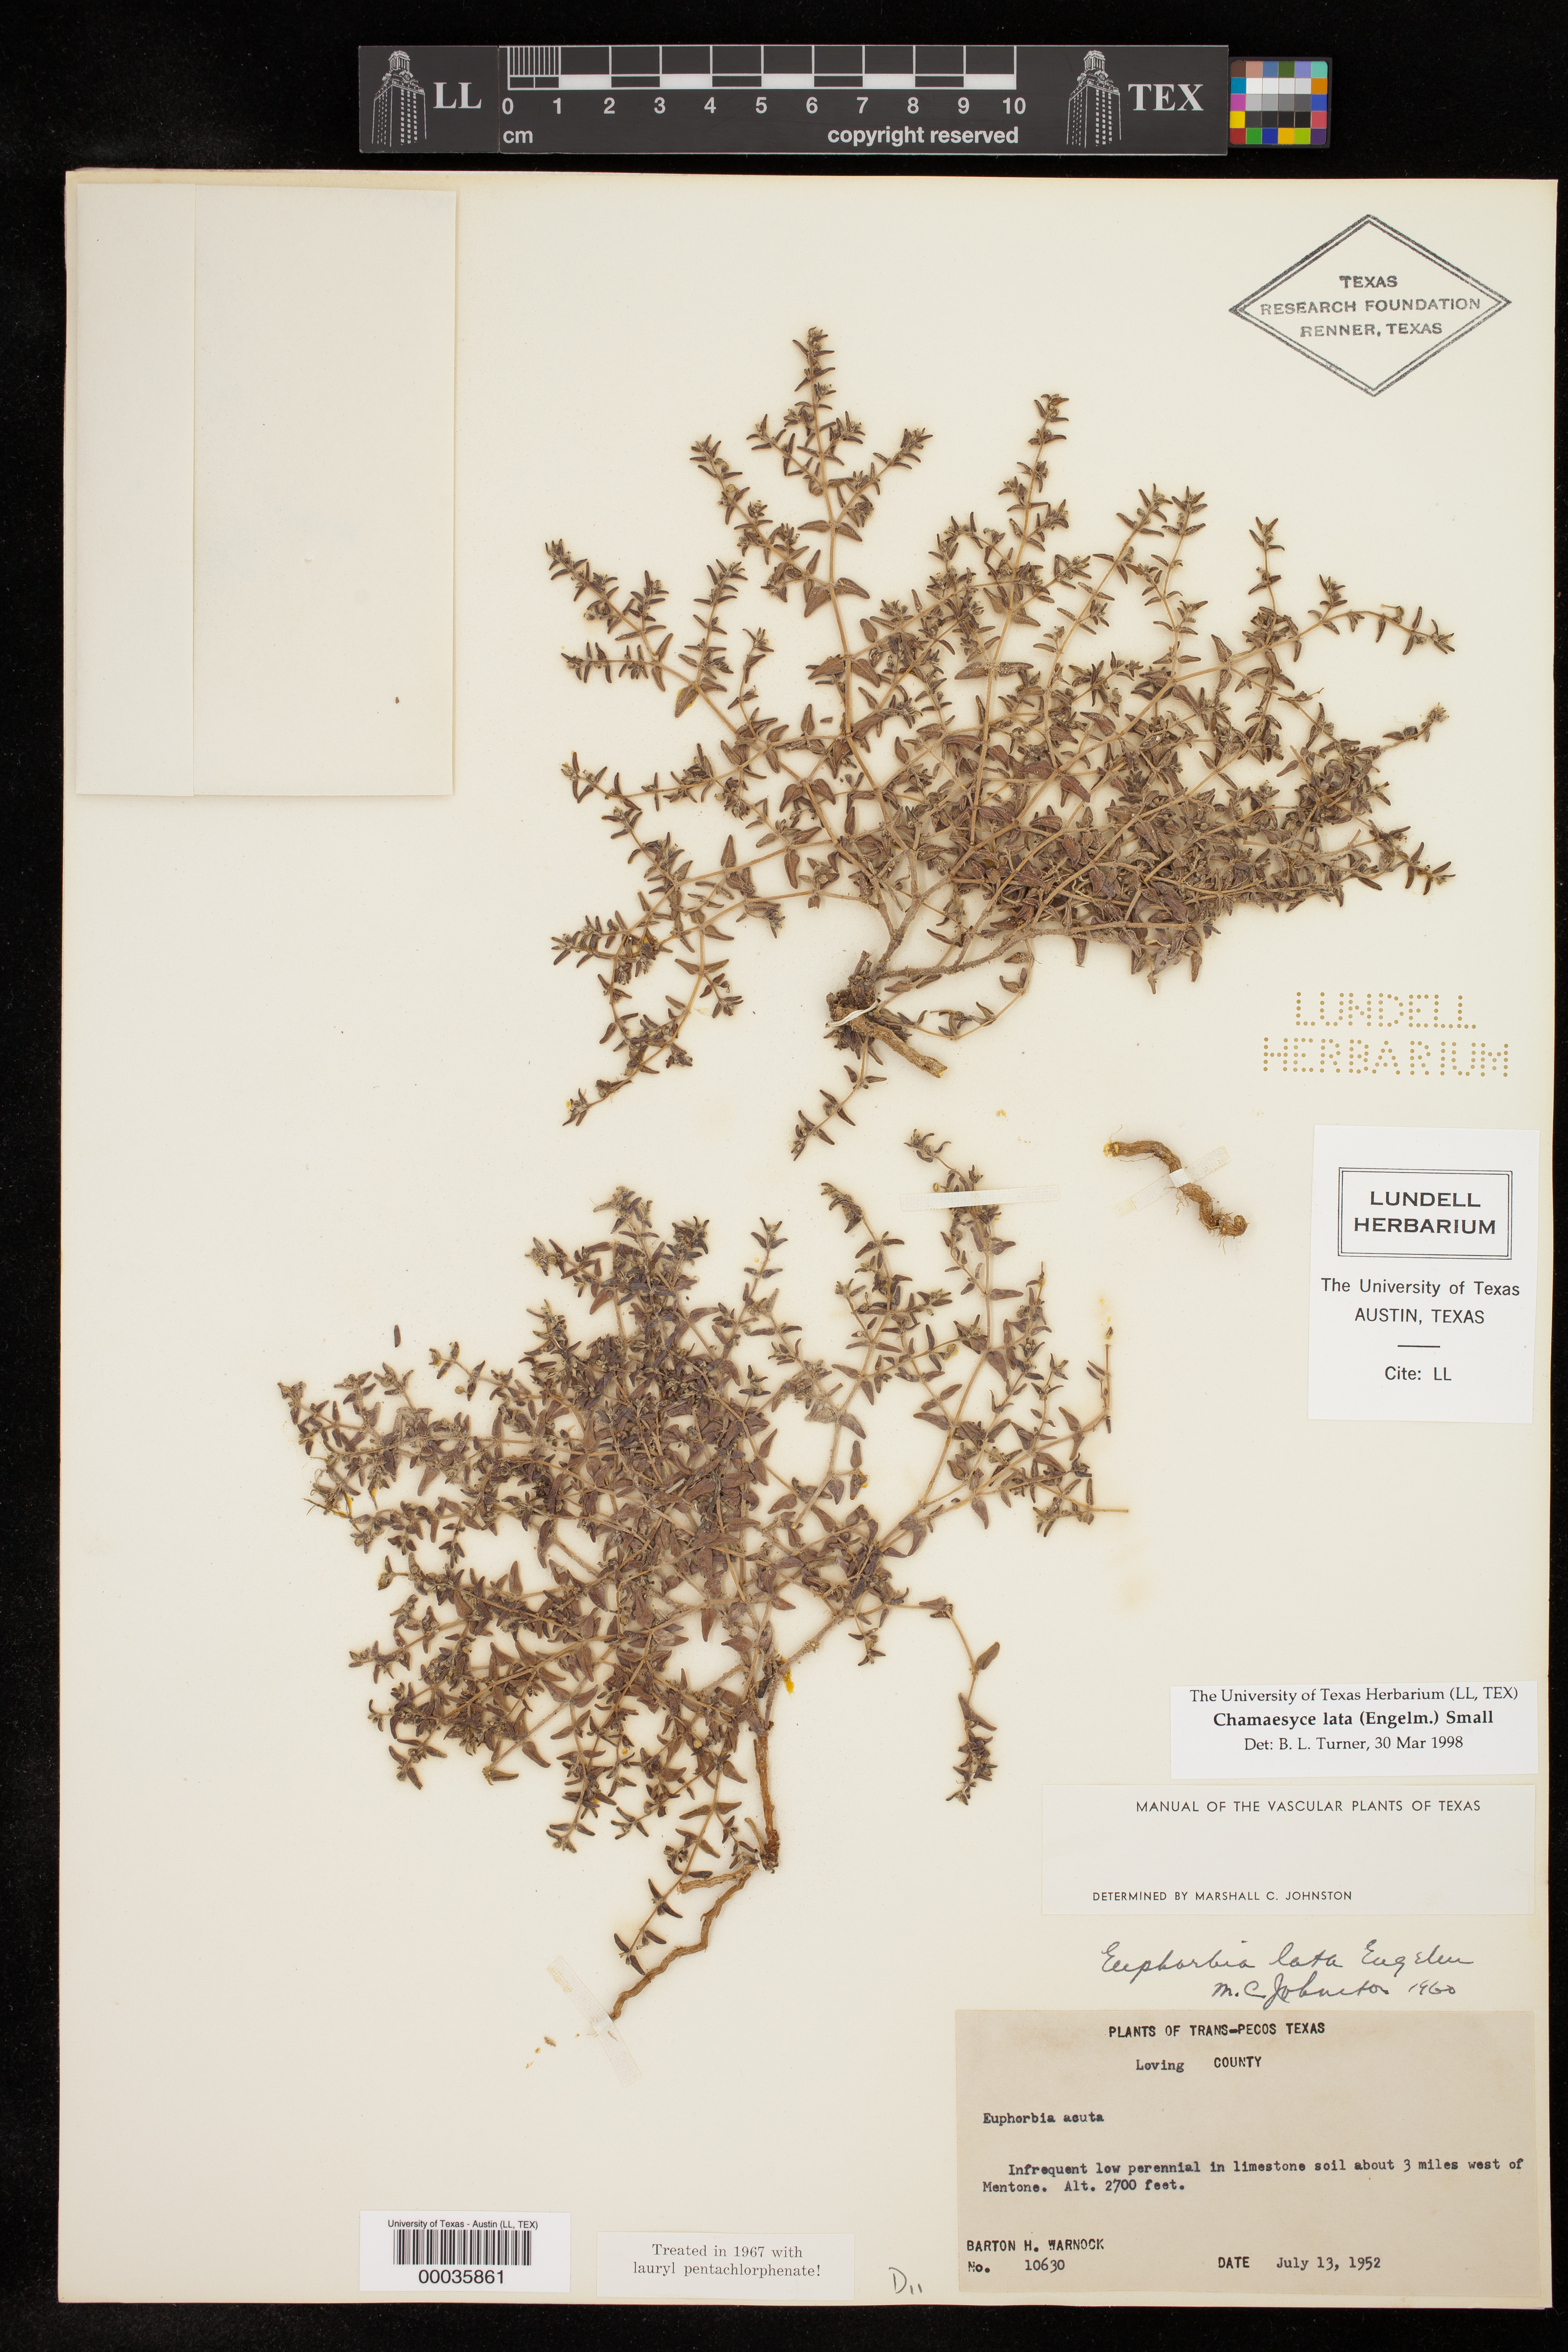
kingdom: Plantae
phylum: Tracheophyta
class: Magnoliopsida
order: Malpighiales
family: Euphorbiaceae
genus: Euphorbia
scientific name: Euphorbia lata
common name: Hoary euphorbia
